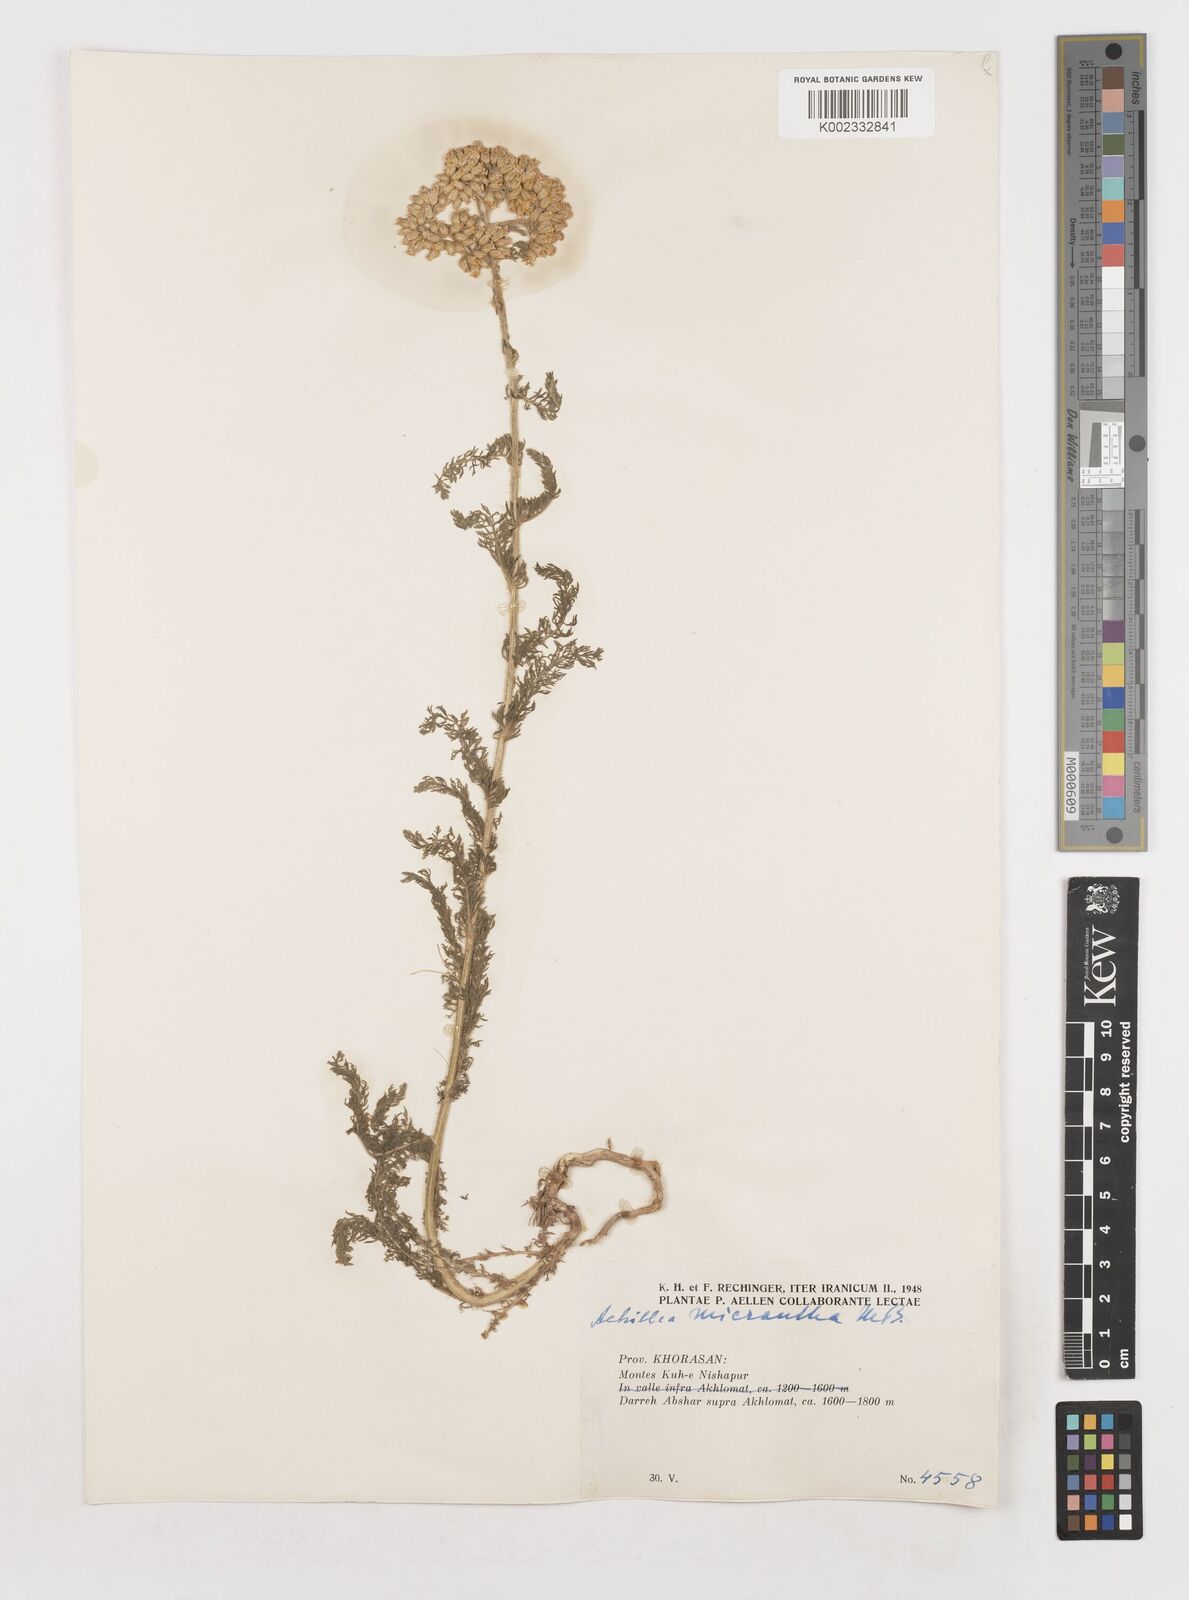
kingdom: Plantae
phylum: Tracheophyta
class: Magnoliopsida
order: Asterales
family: Asteraceae
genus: Achillea
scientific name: Achillea micrantha
